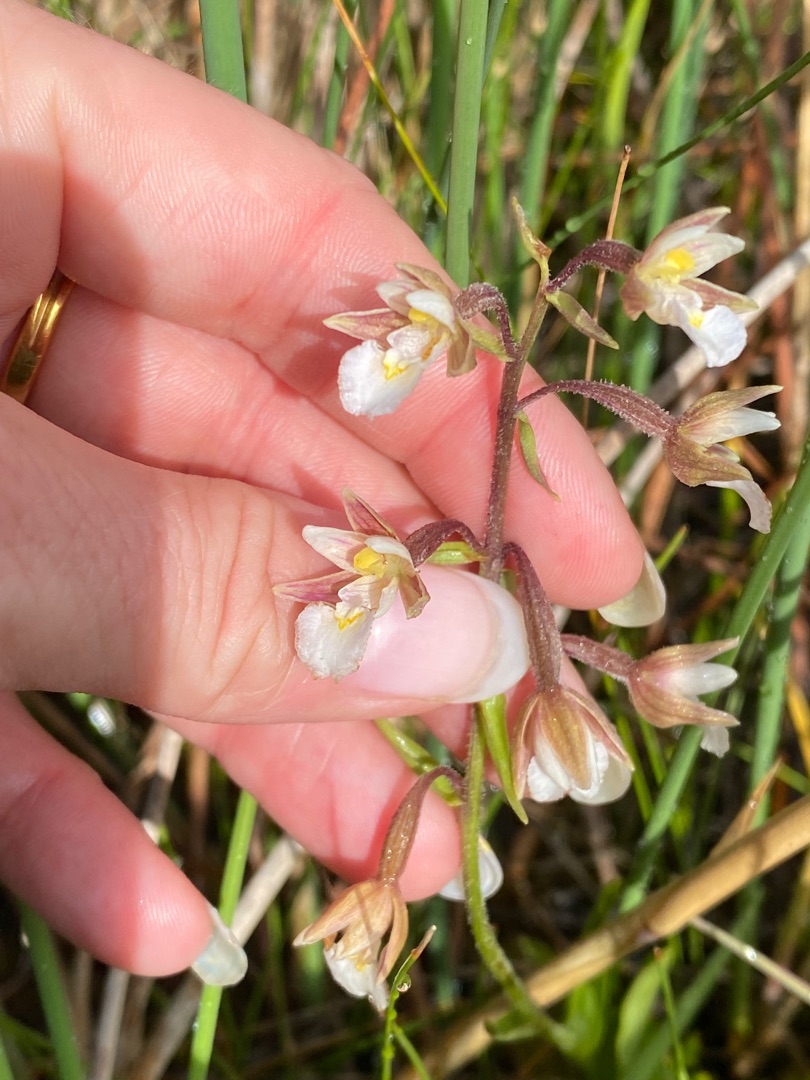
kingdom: Plantae
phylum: Tracheophyta
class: Liliopsida
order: Asparagales
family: Orchidaceae
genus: Epipactis
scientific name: Epipactis palustris
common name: Sump-hullæbe
